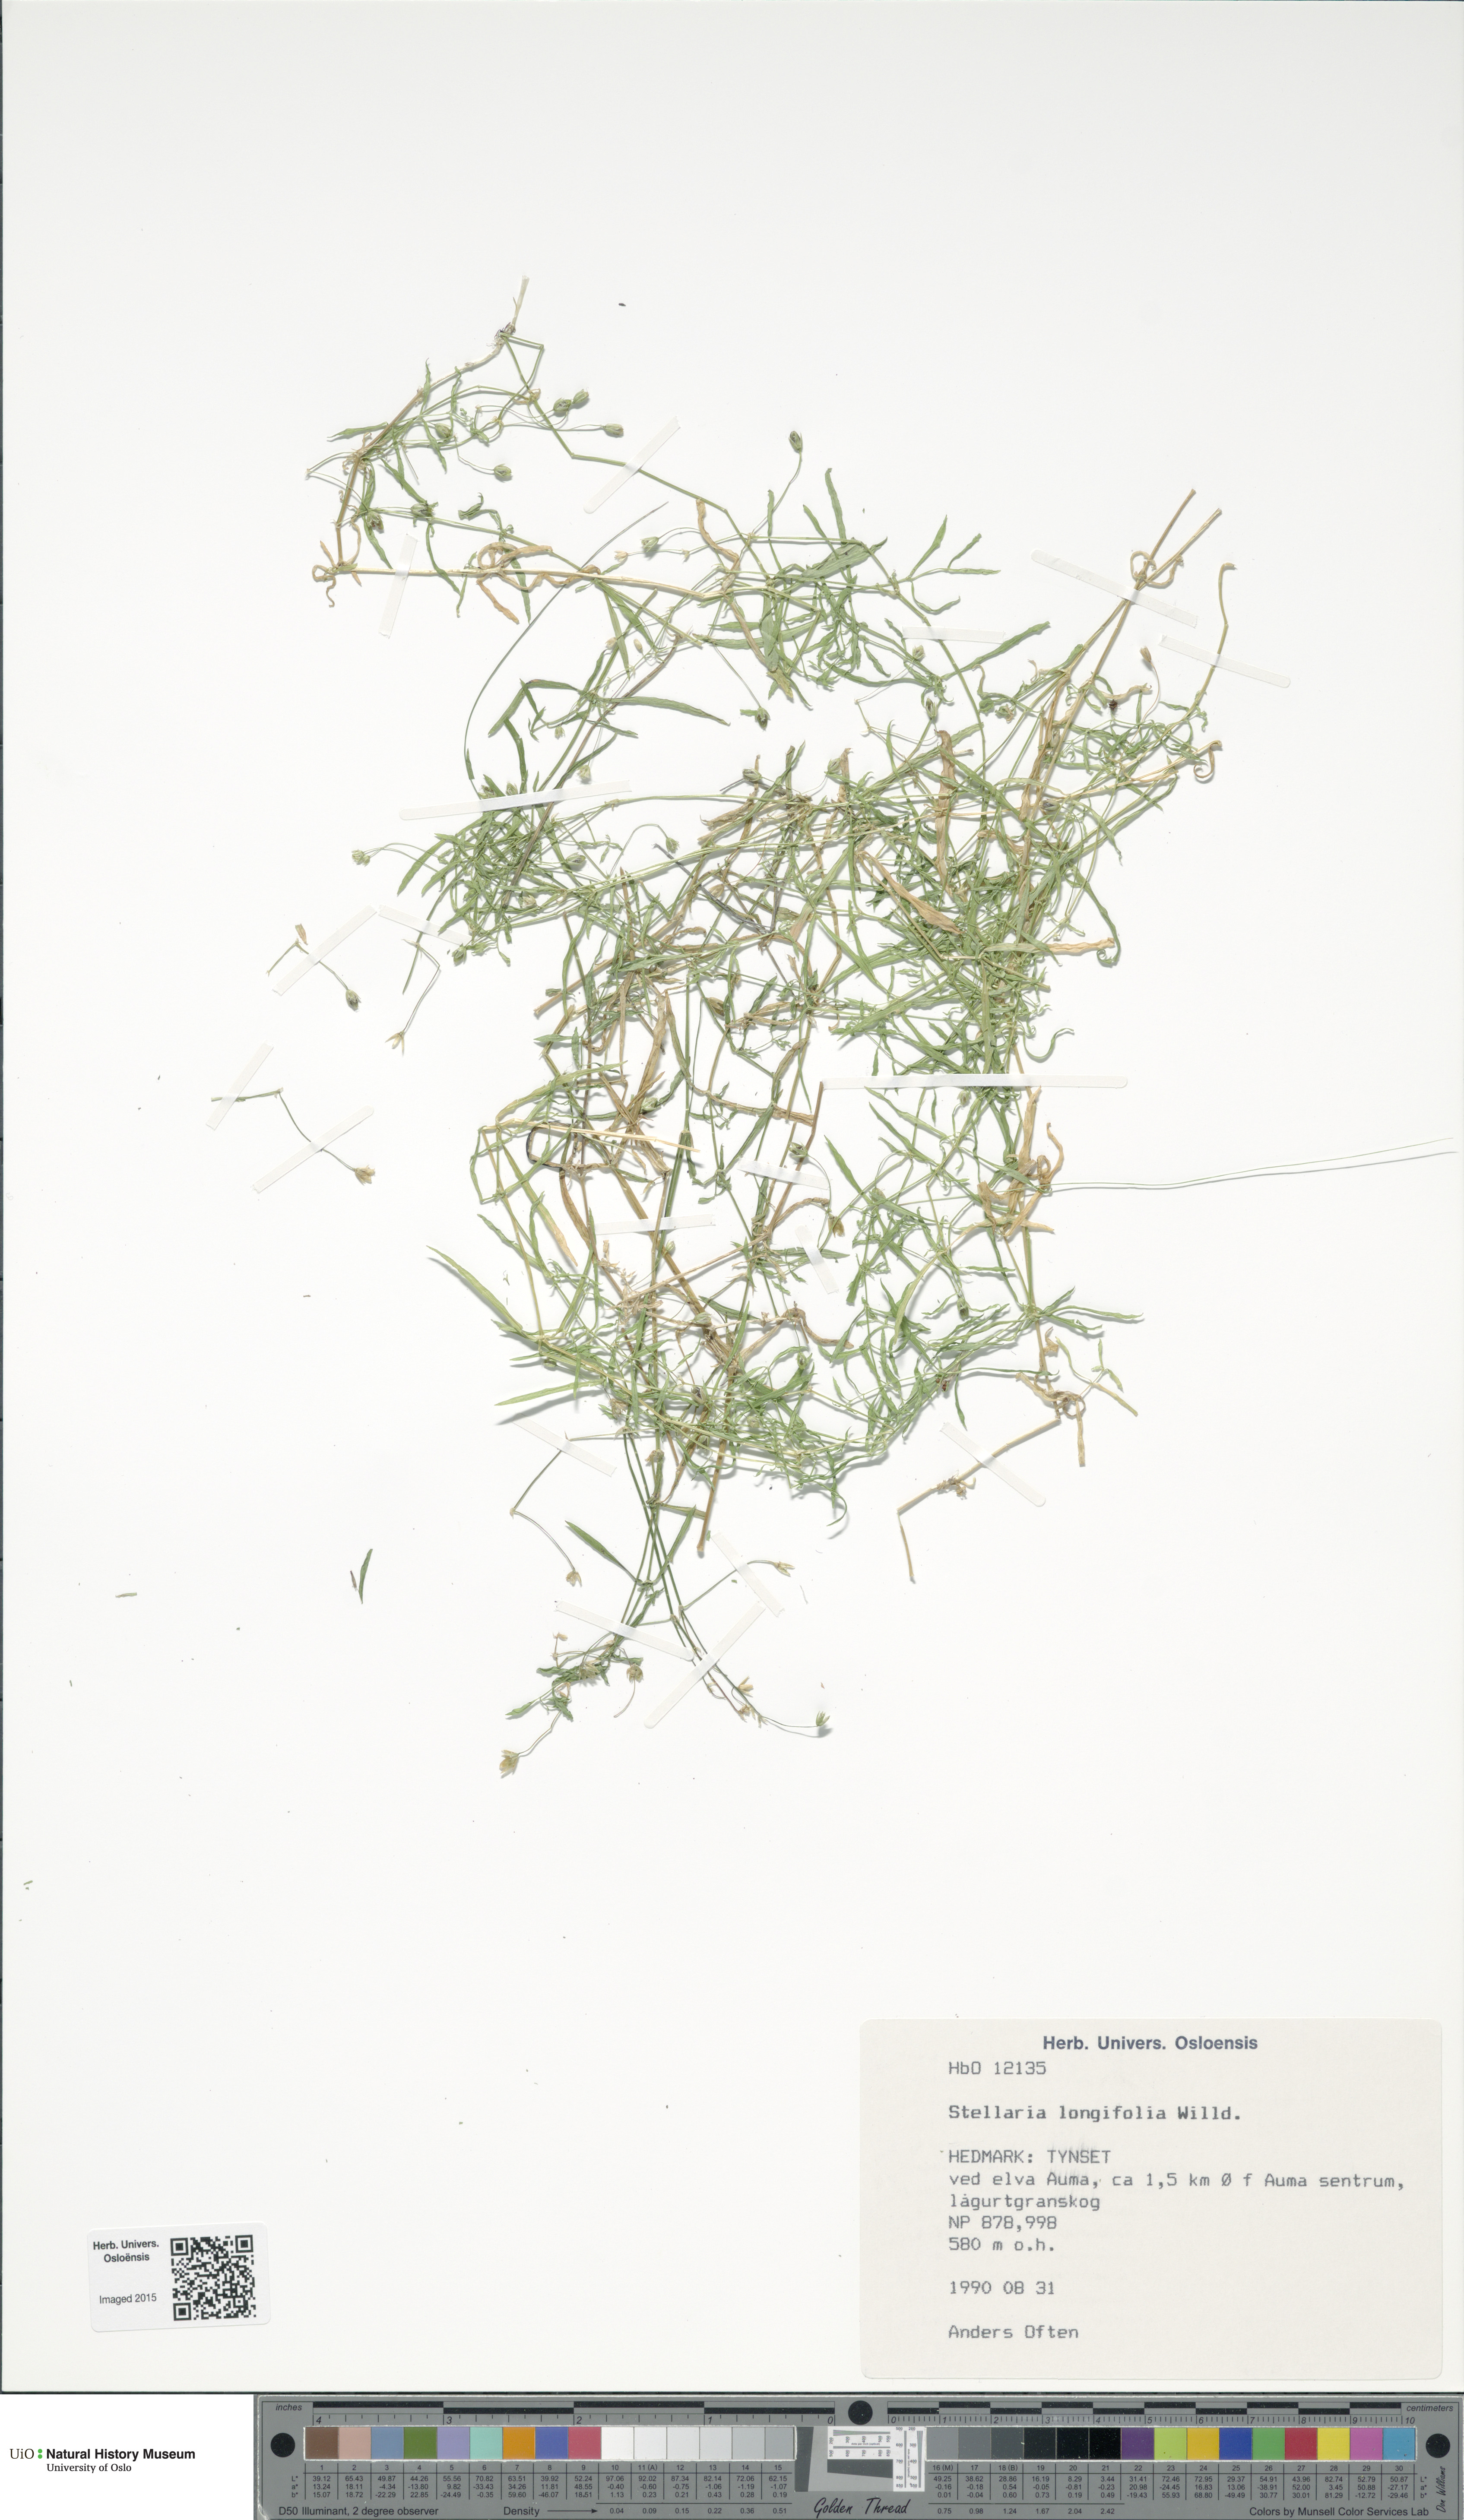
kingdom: Plantae
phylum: Tracheophyta
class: Magnoliopsida
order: Caryophyllales
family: Caryophyllaceae
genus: Stellaria
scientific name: Stellaria longifolia
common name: Long-leaved chickweed
